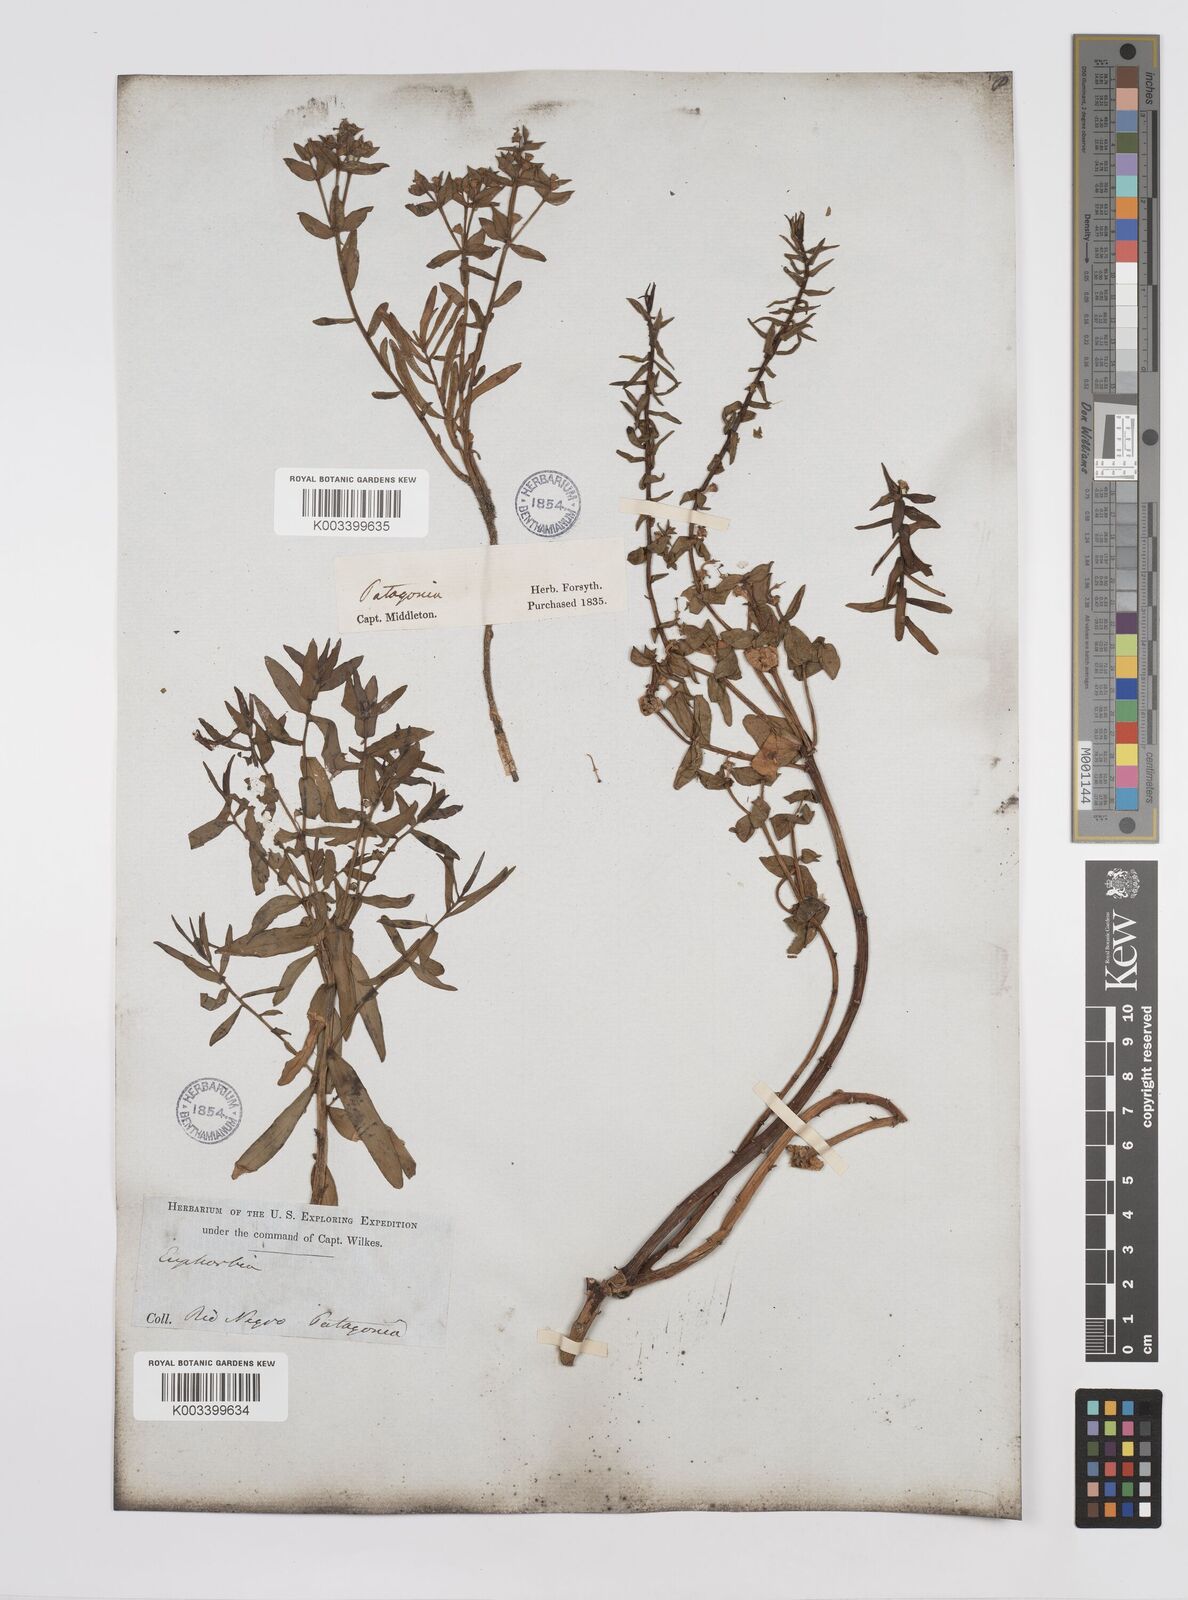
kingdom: Plantae
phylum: Tracheophyta
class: Magnoliopsida
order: Malpighiales
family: Euphorbiaceae
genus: Euphorbia
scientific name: Euphorbia portulacoides
